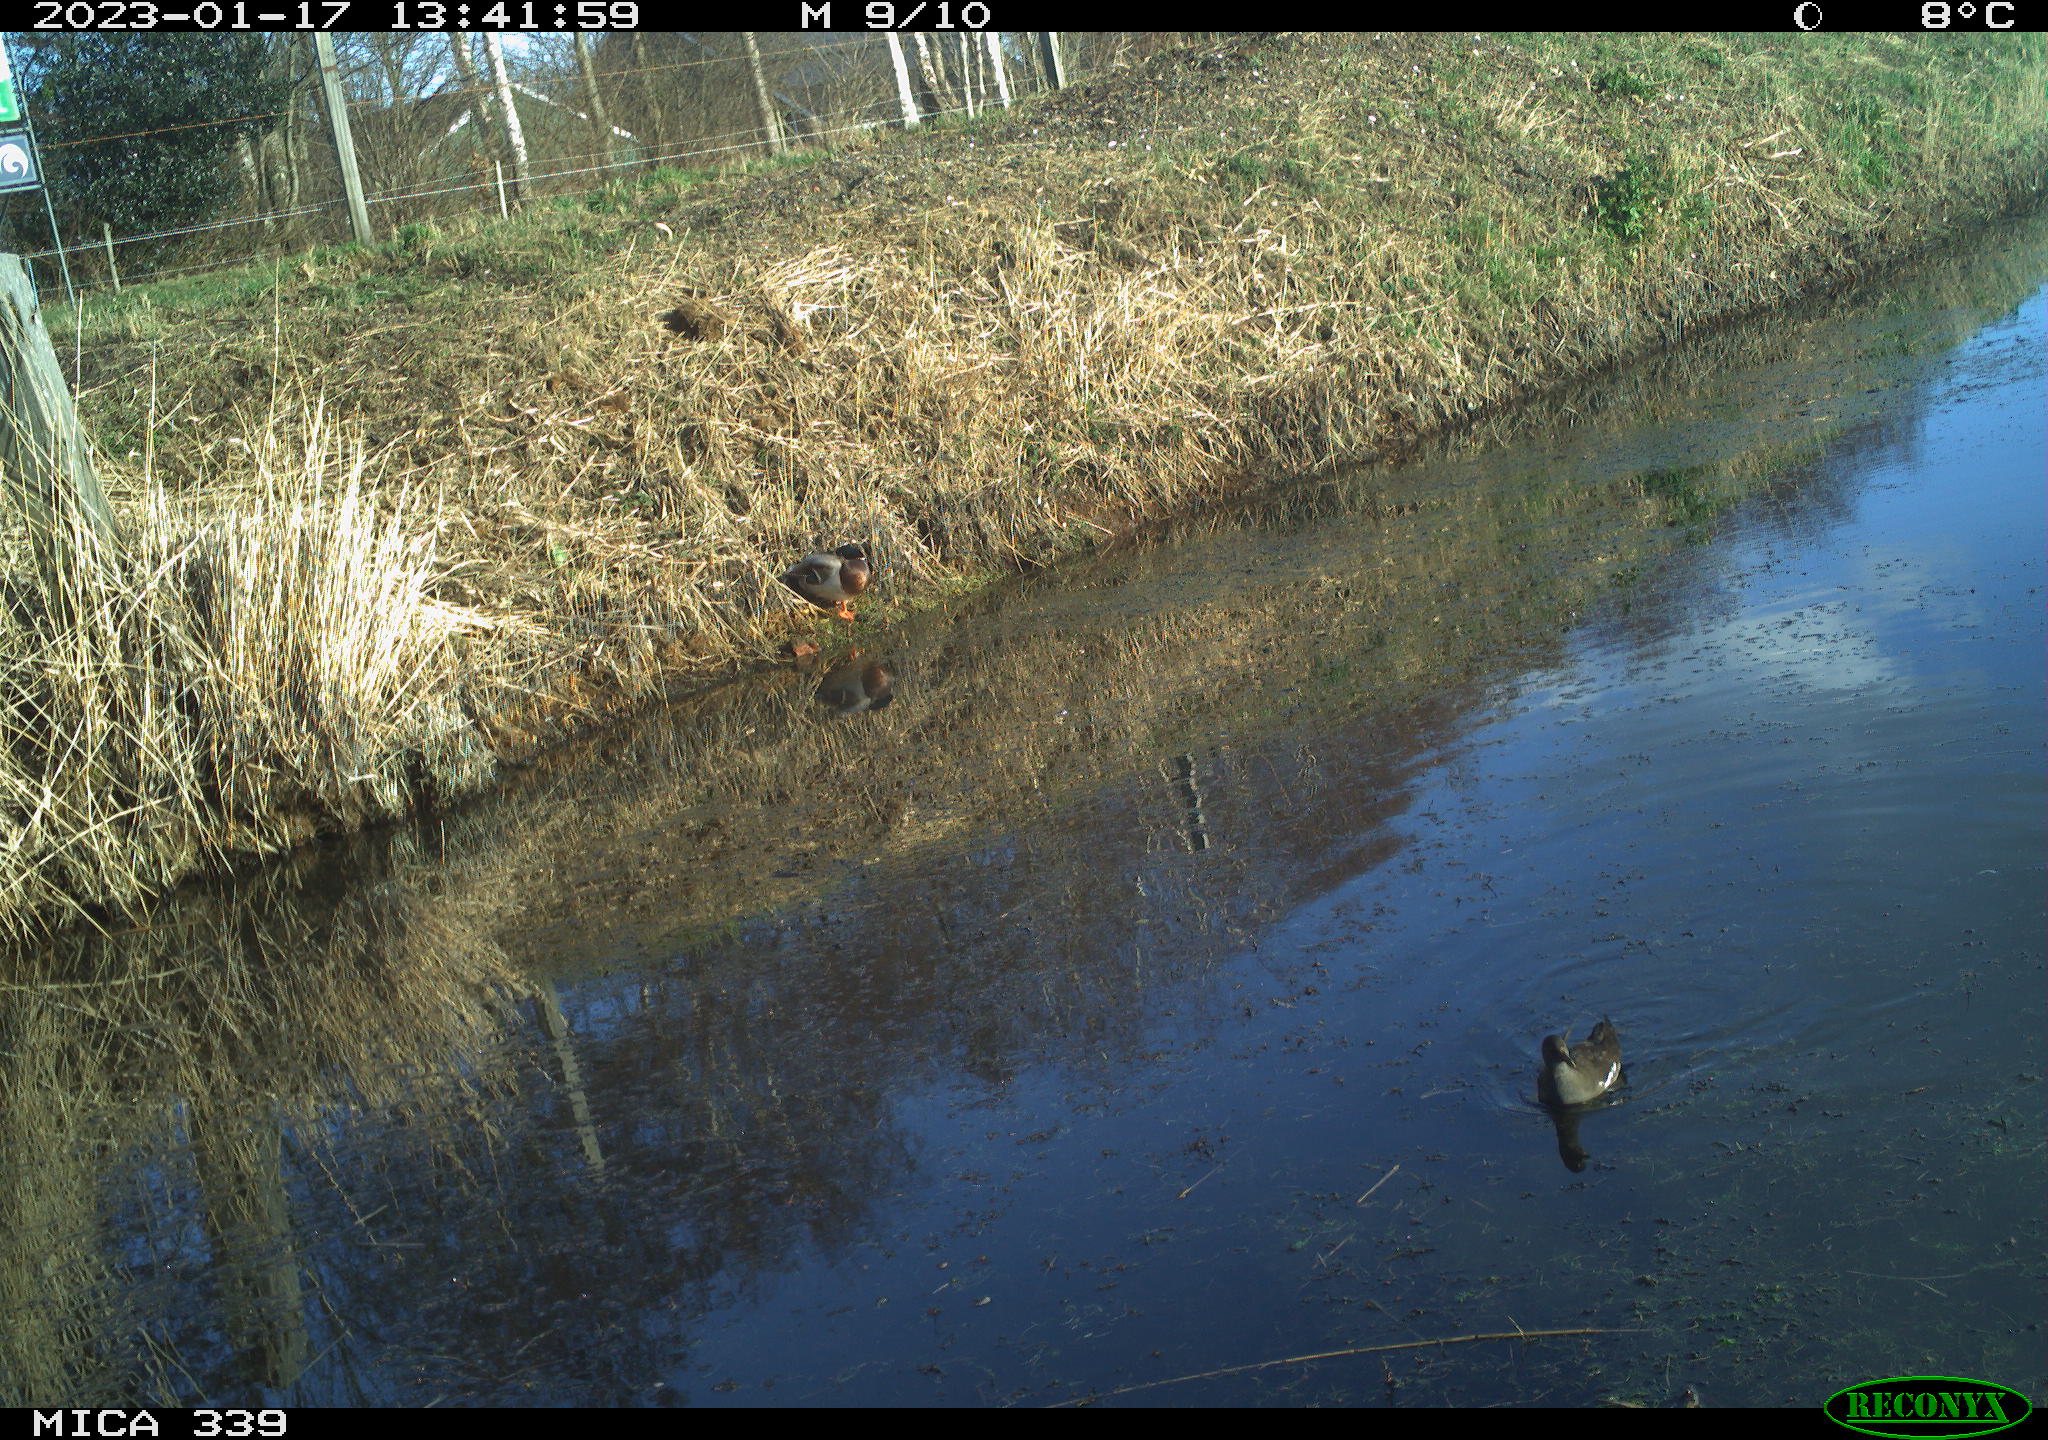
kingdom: Animalia
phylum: Chordata
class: Aves
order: Gruiformes
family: Rallidae
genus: Gallinula
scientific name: Gallinula chloropus
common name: Common moorhen
